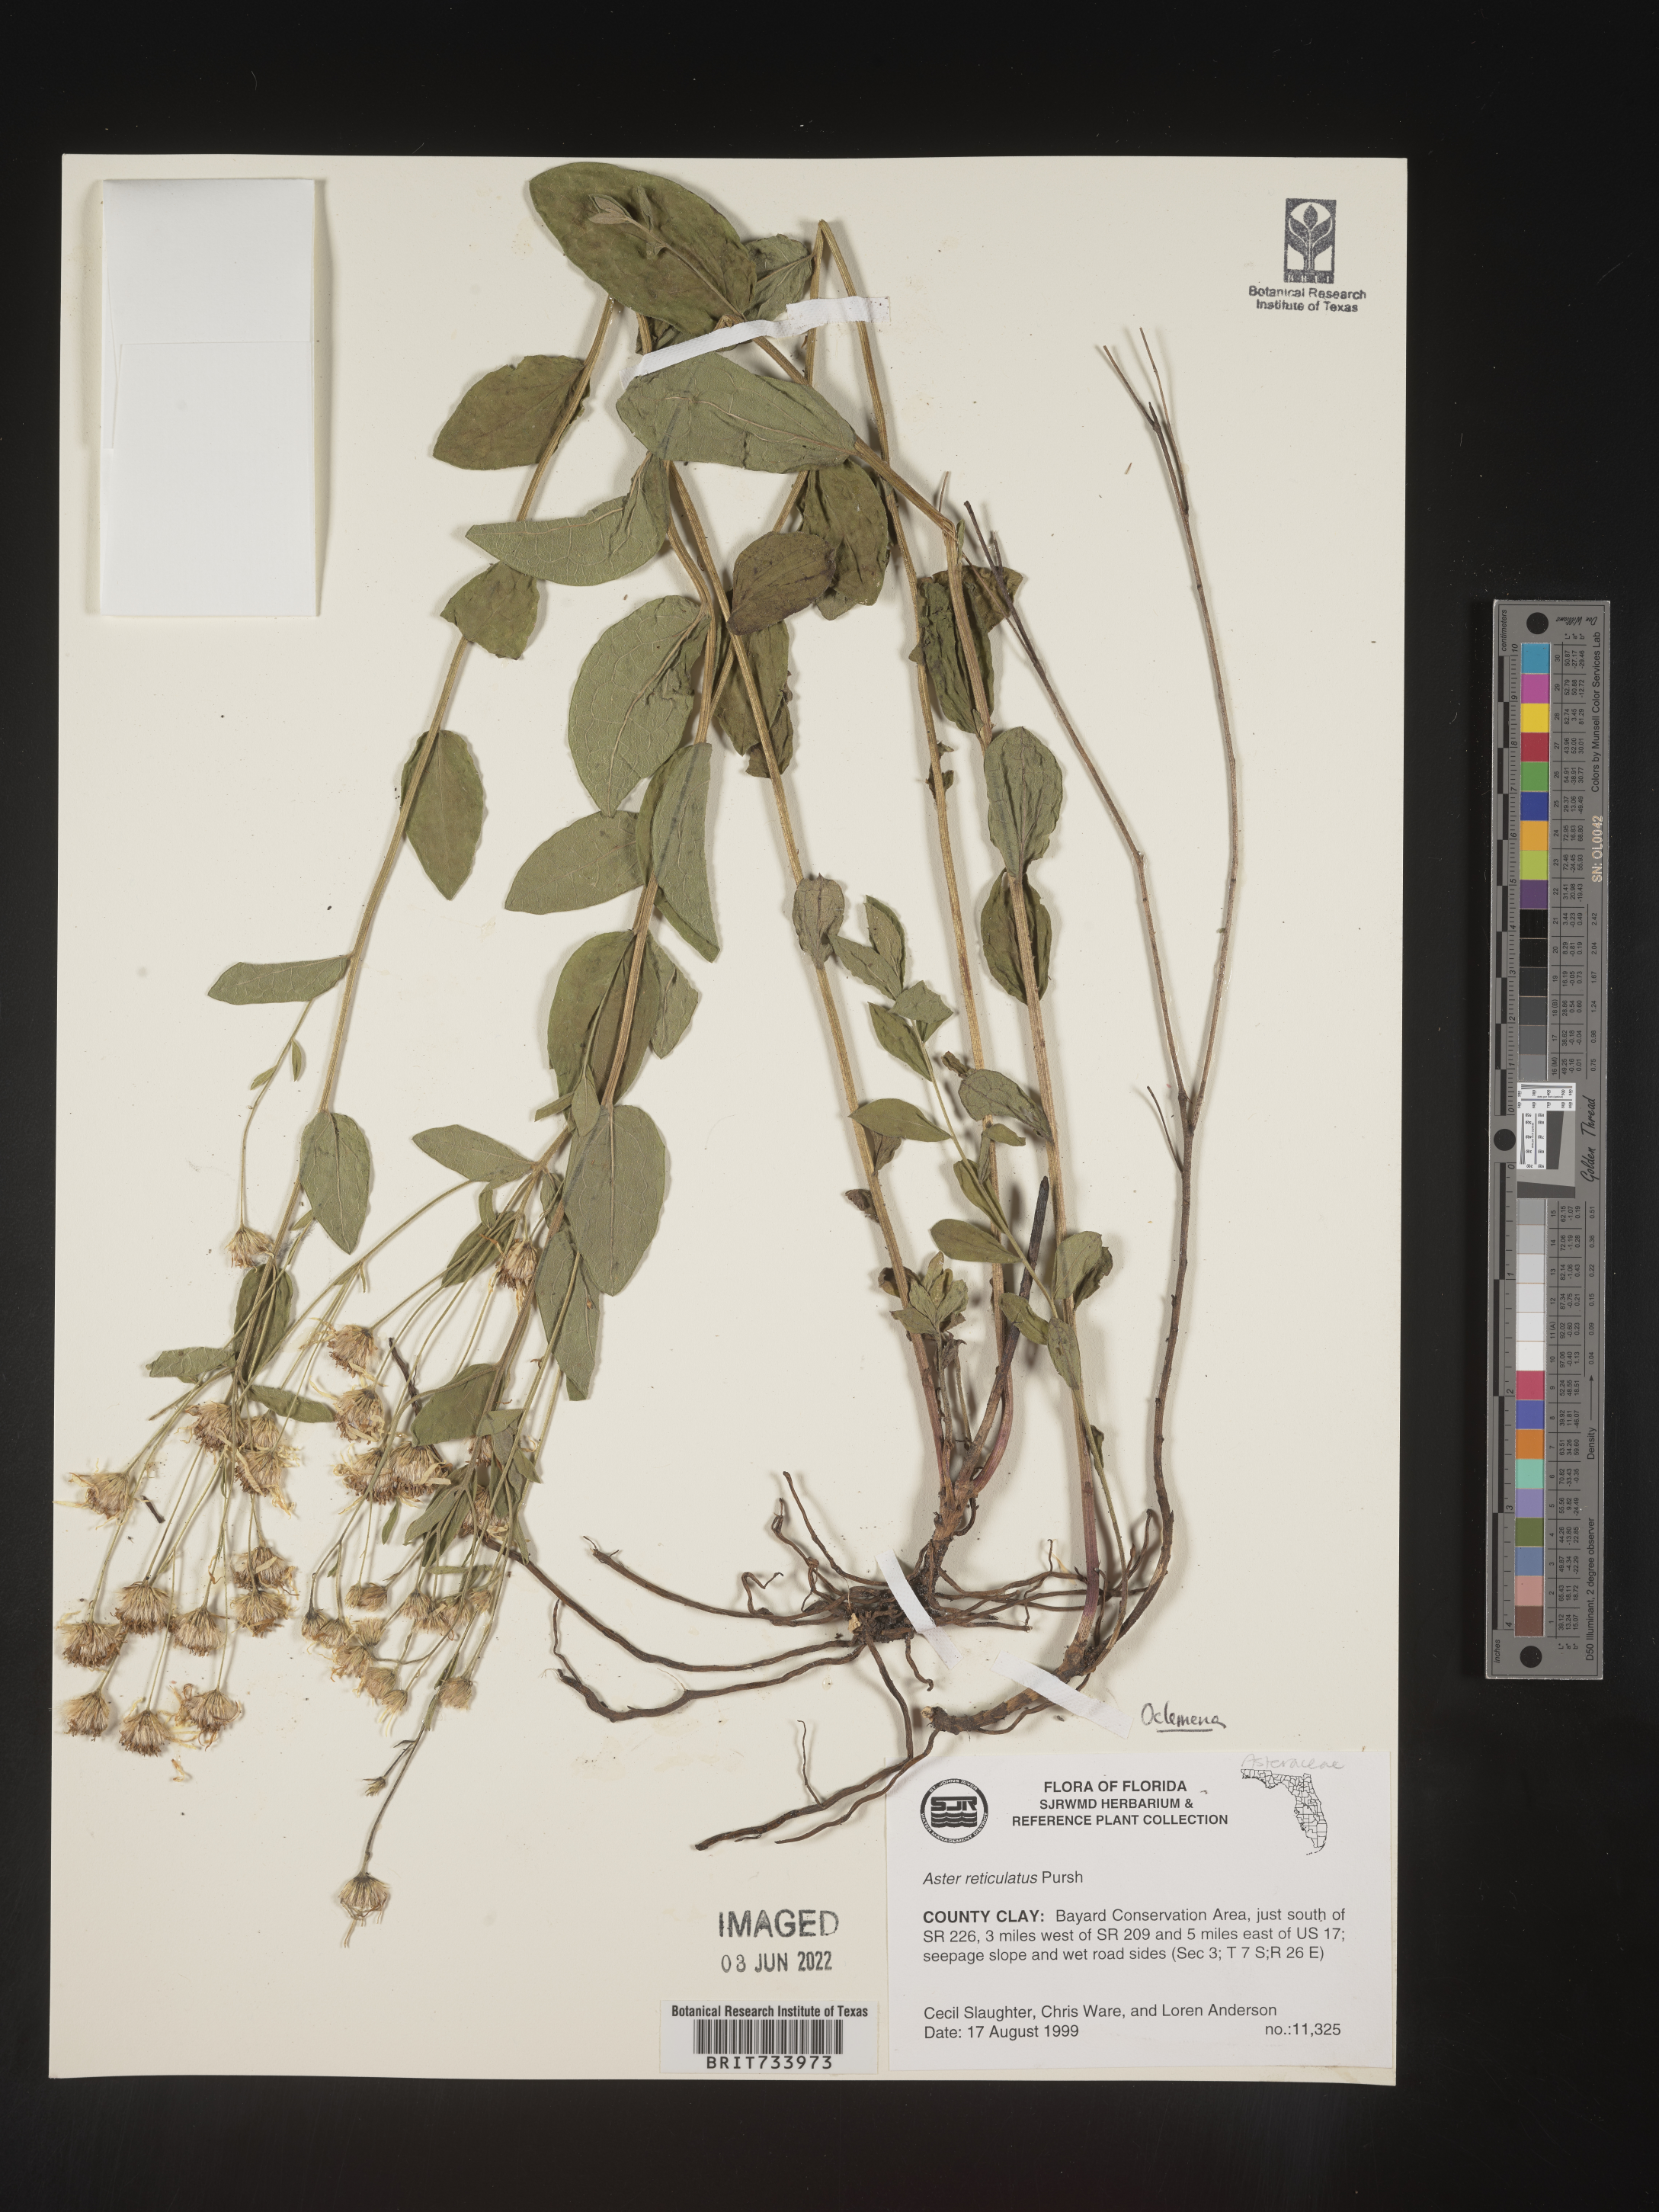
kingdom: Plantae
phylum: Tracheophyta
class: Magnoliopsida
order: Asterales
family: Asteraceae
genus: Oclemena
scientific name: Oclemena reticulata
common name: Pinebarren aster
